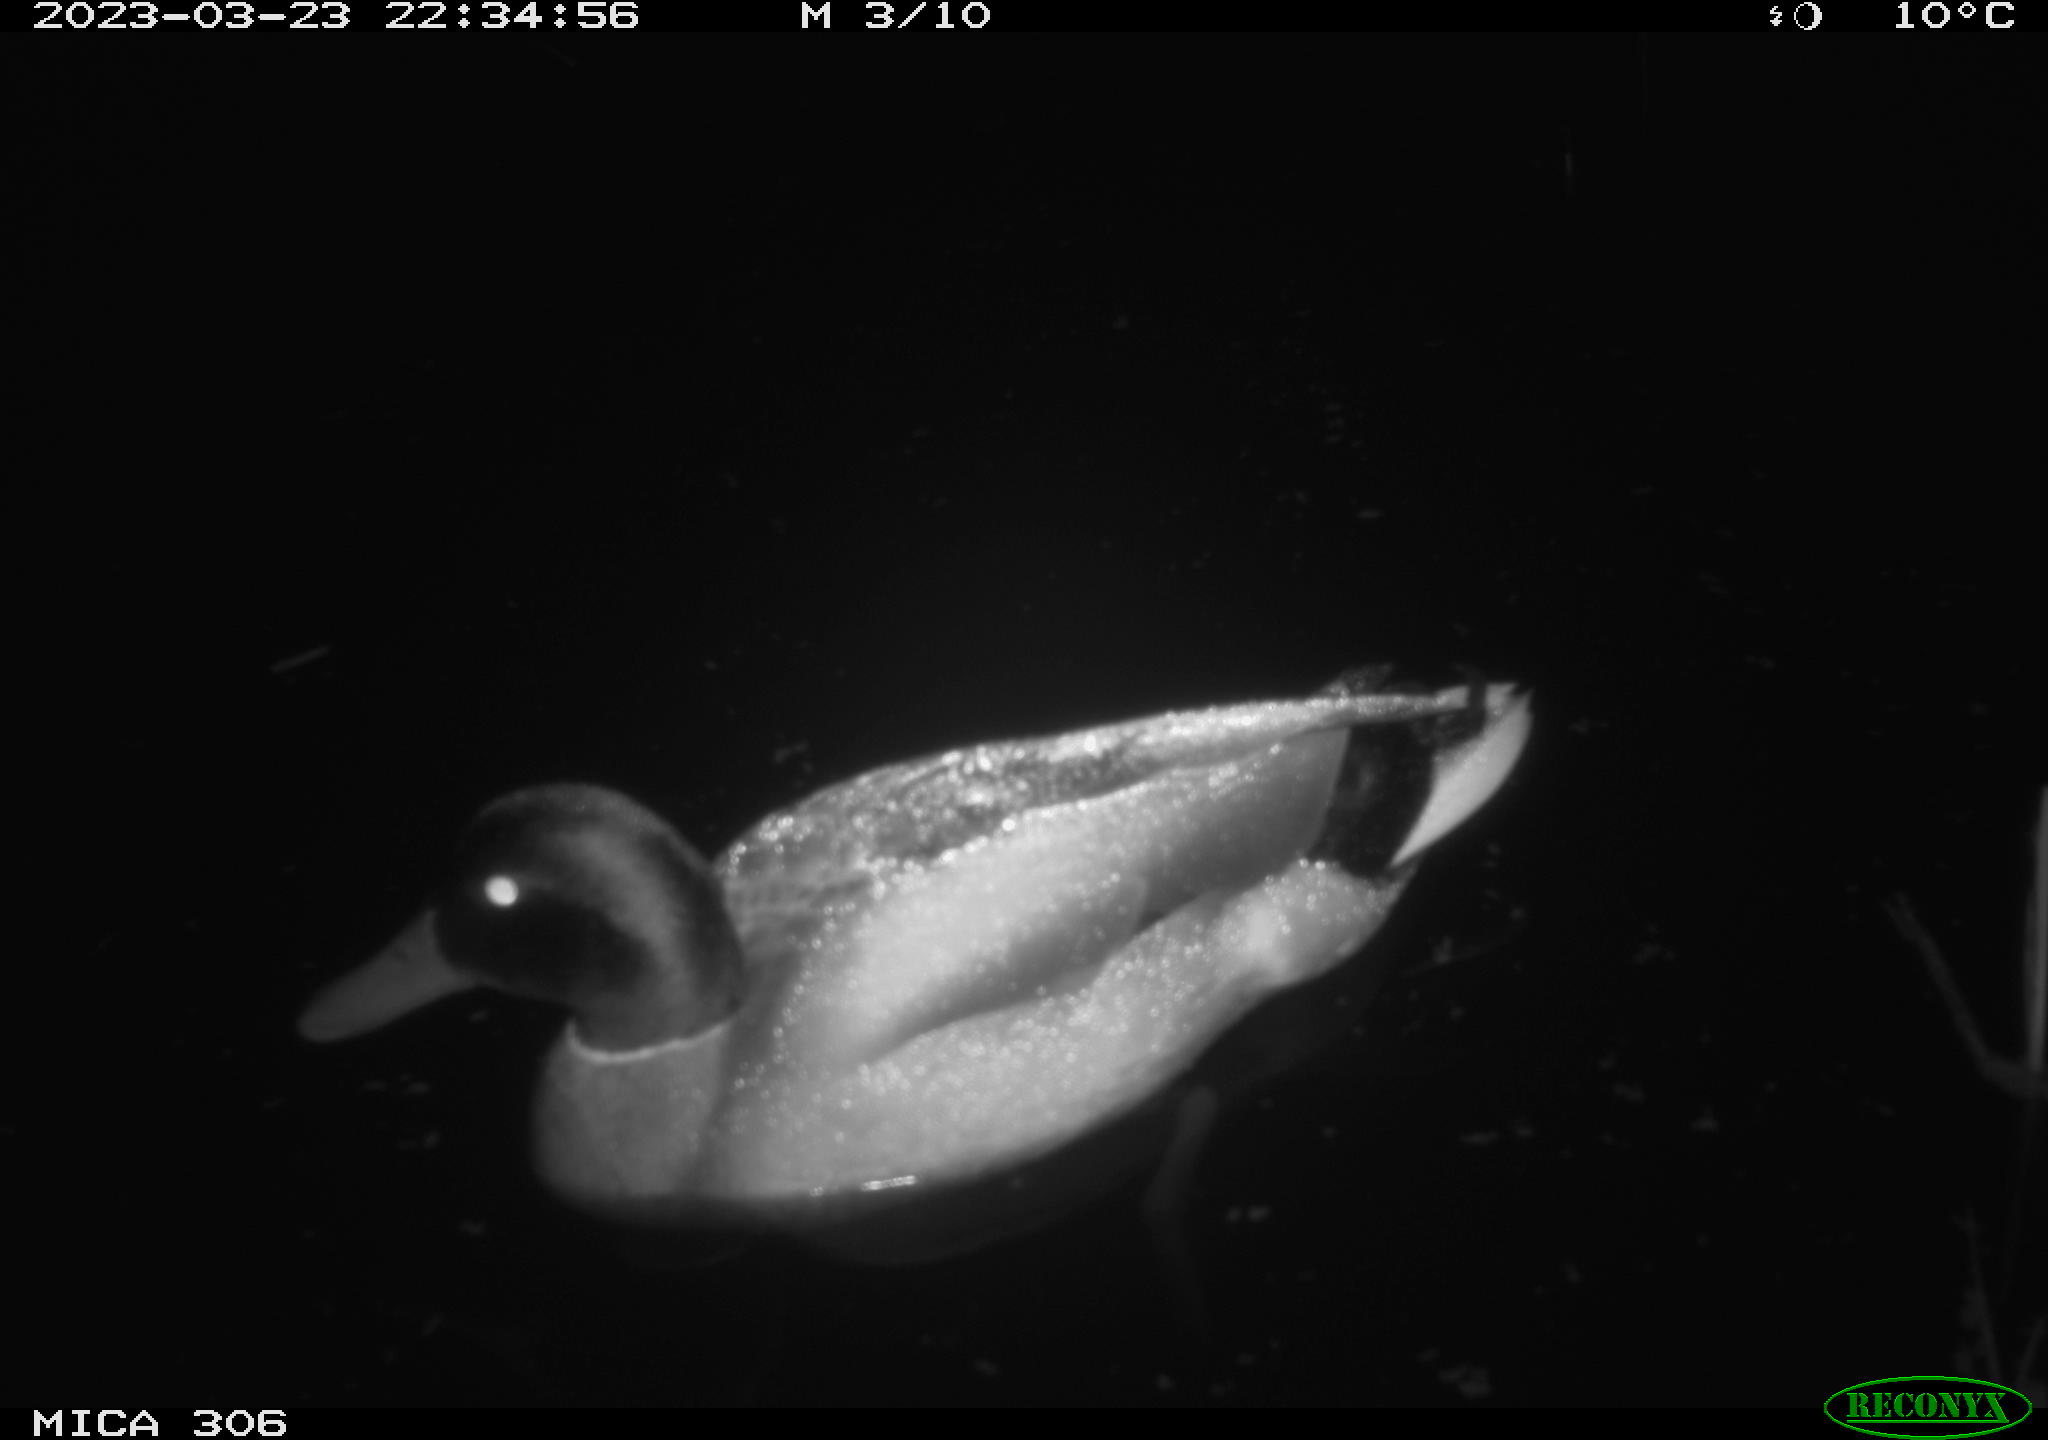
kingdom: Animalia
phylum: Chordata
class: Aves
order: Anseriformes
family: Anatidae
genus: Anas
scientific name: Anas
